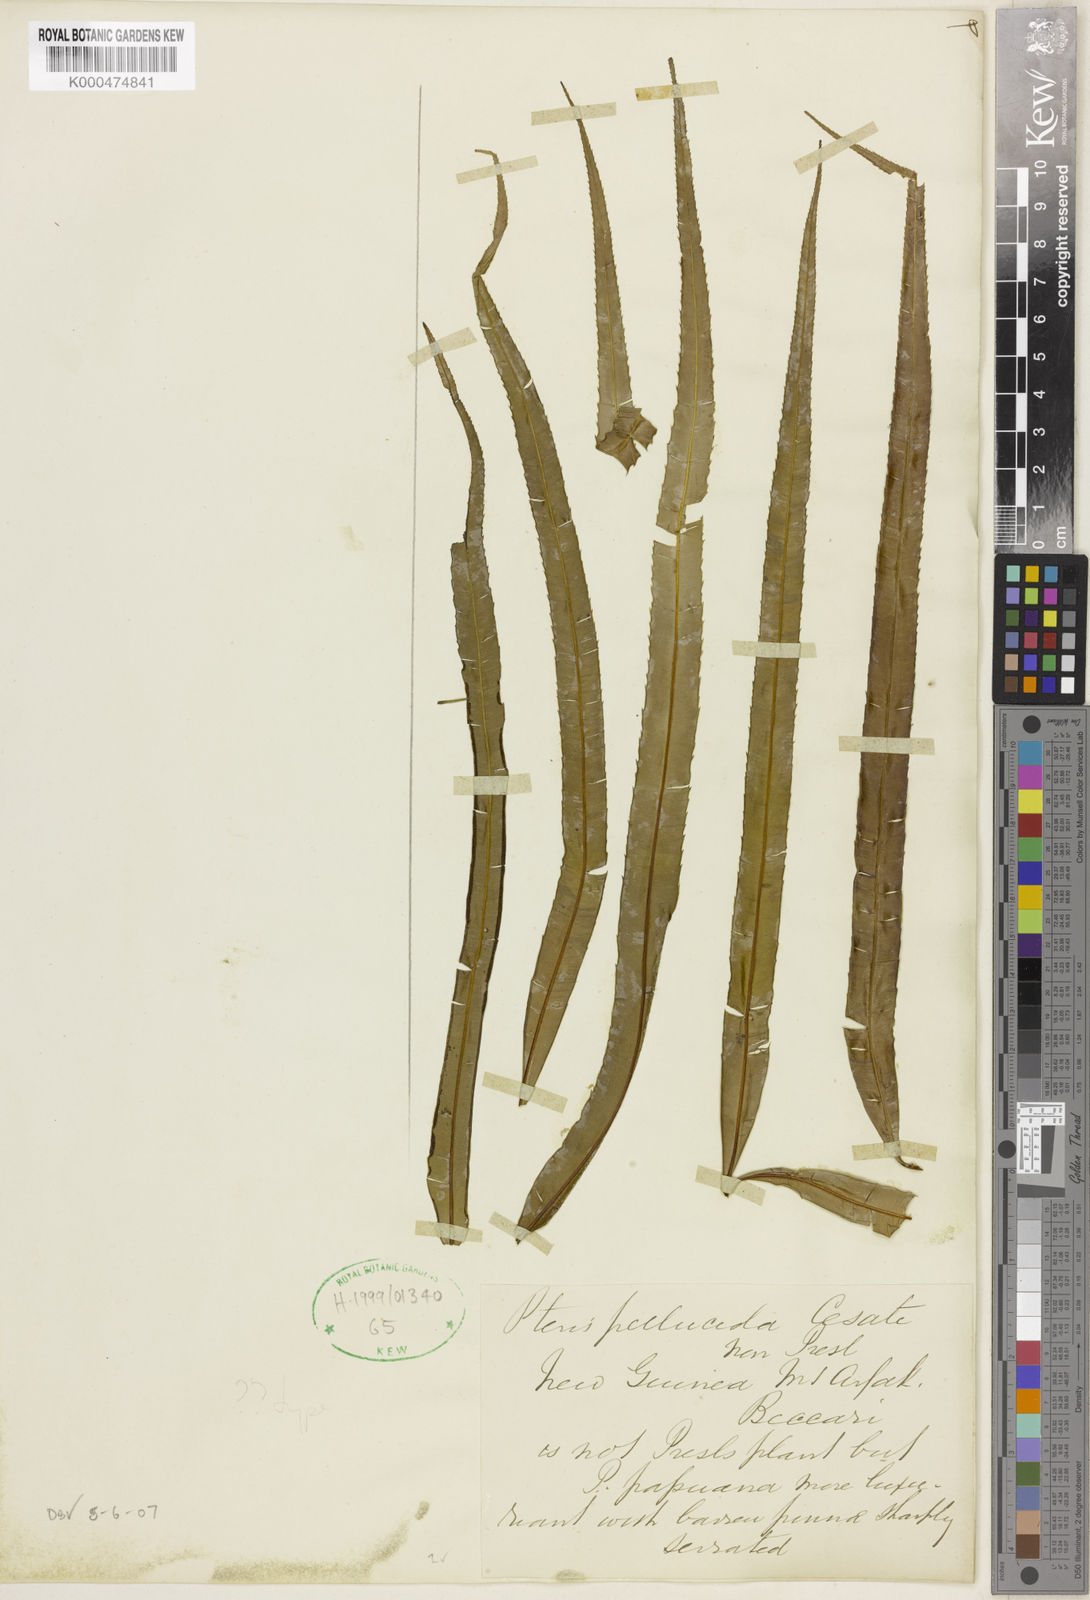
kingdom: Plantae
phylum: Tracheophyta
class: Polypodiopsida
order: Polypodiales
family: Pteridaceae
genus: Pteris
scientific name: Pteris papuana
